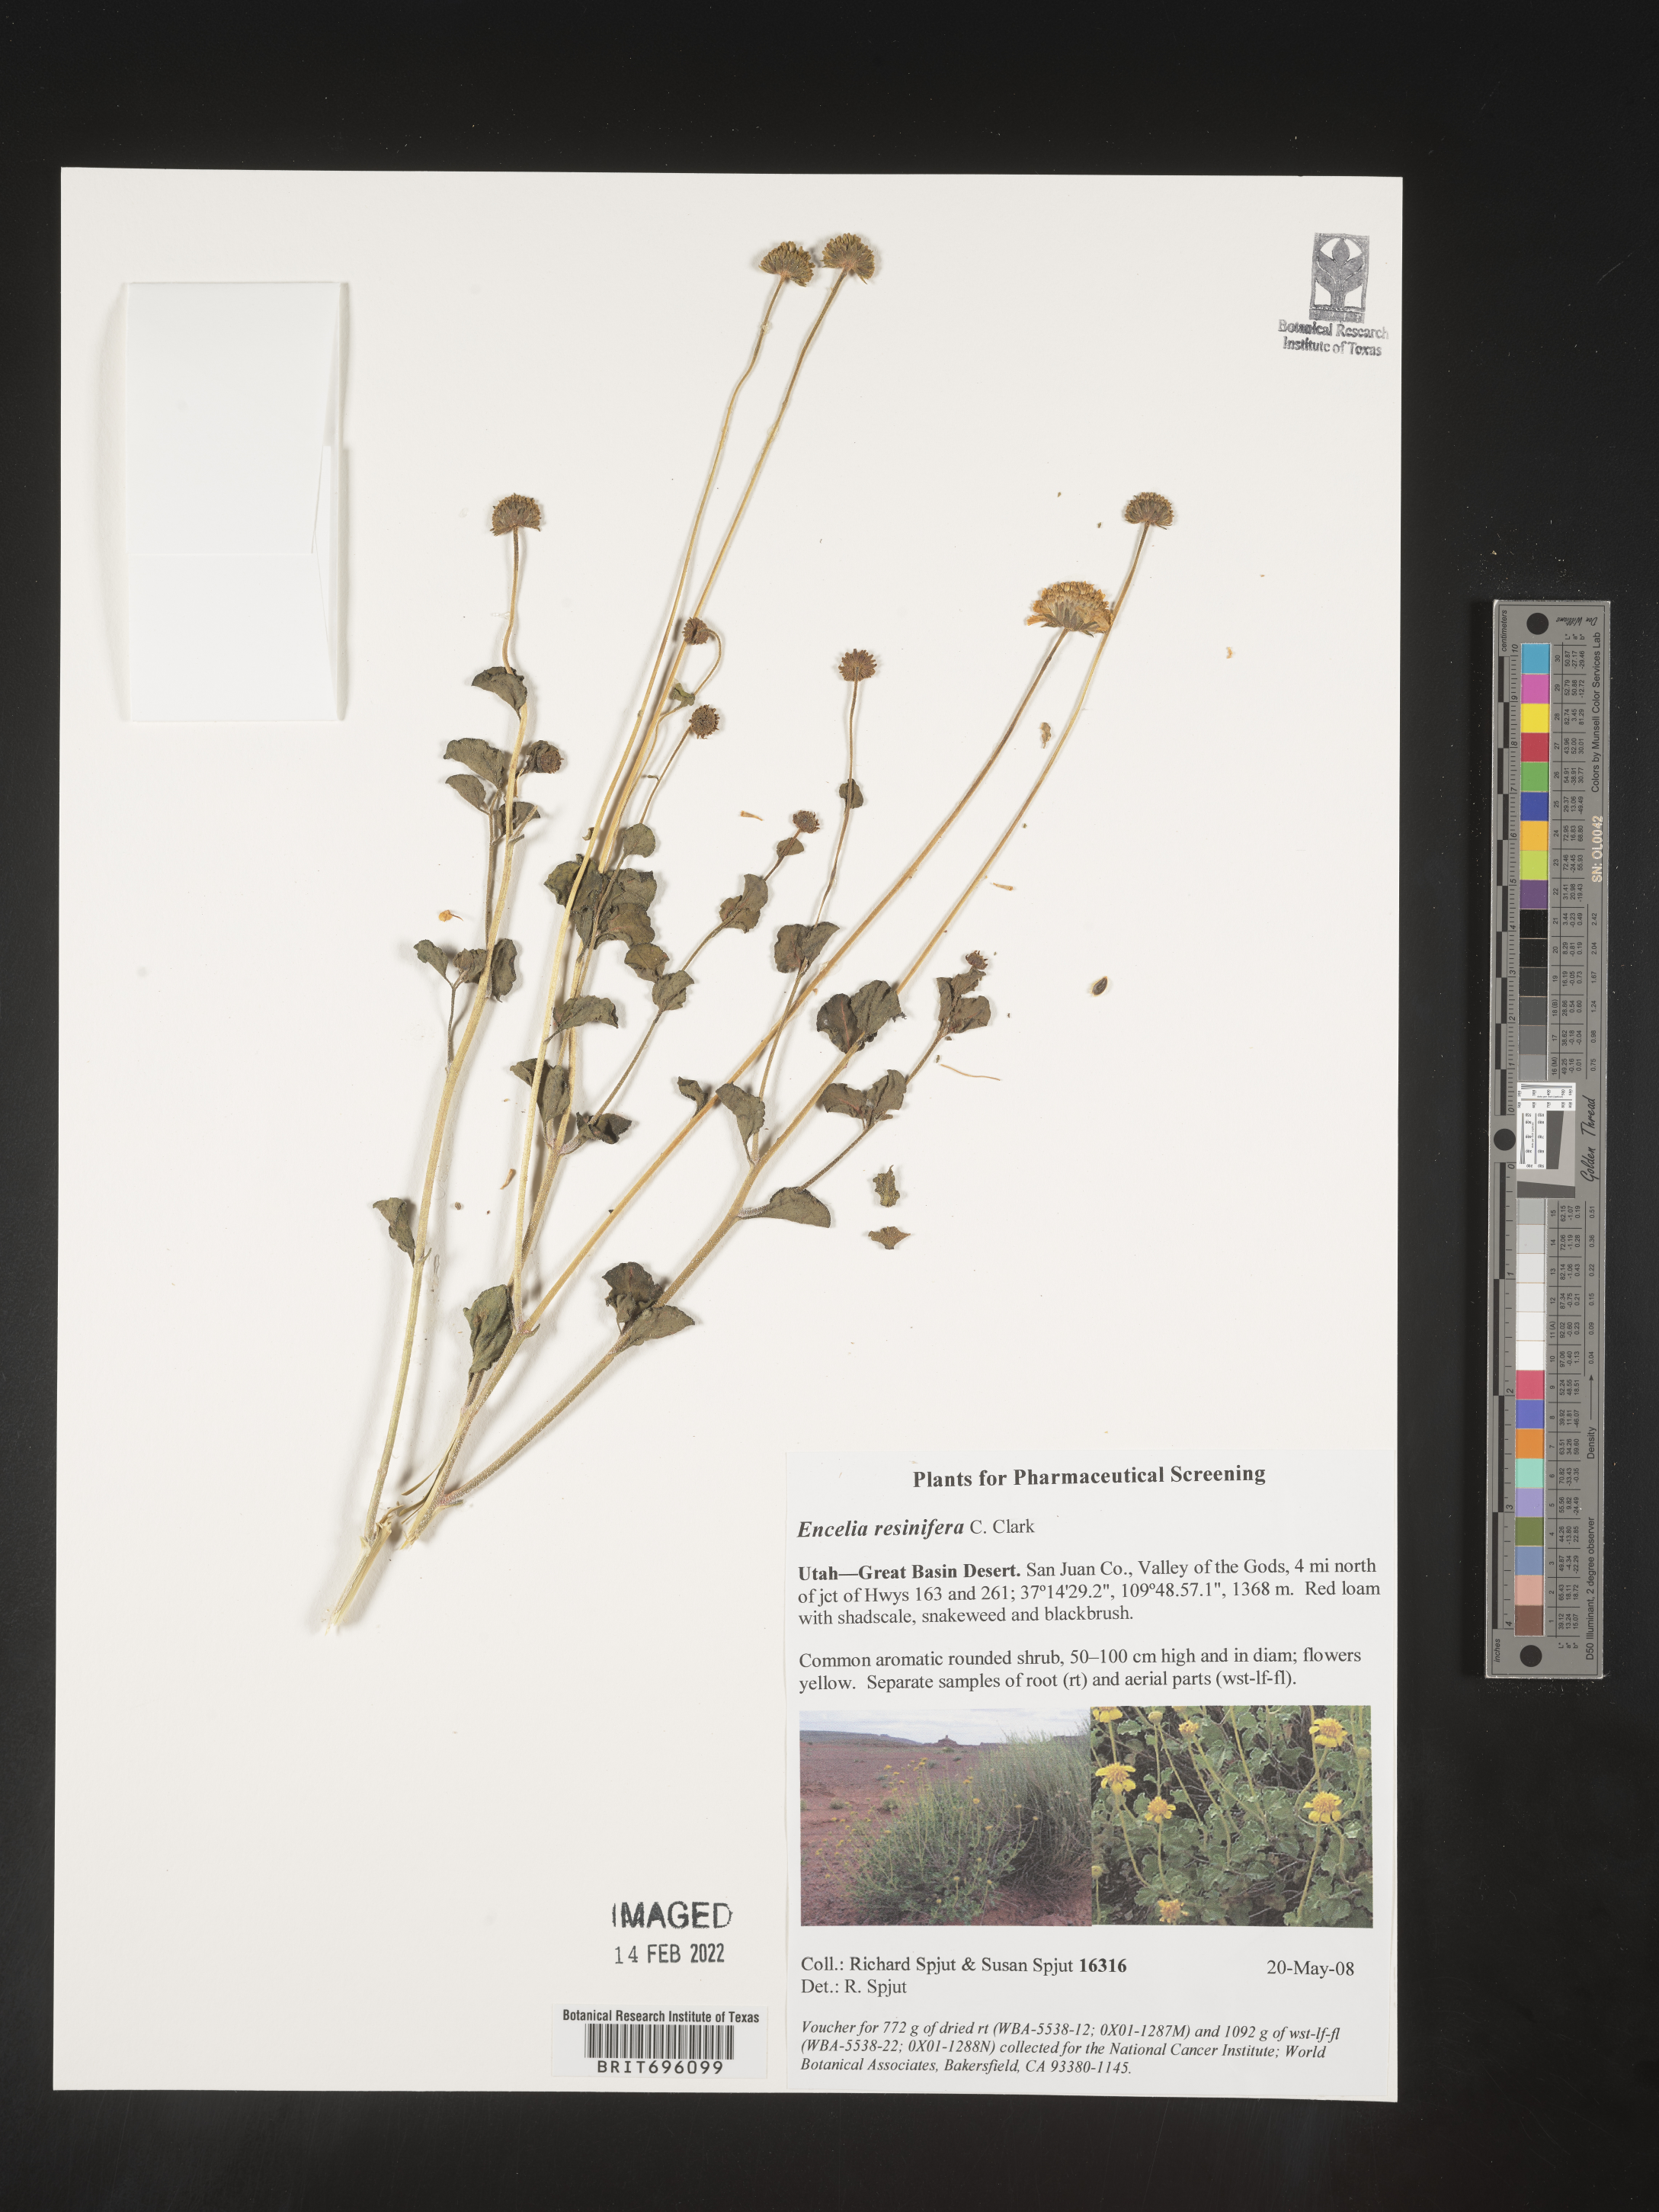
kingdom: Plantae
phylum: Tracheophyta
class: Magnoliopsida
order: Asterales
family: Asteraceae
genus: Encelia
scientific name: Encelia resinifera
